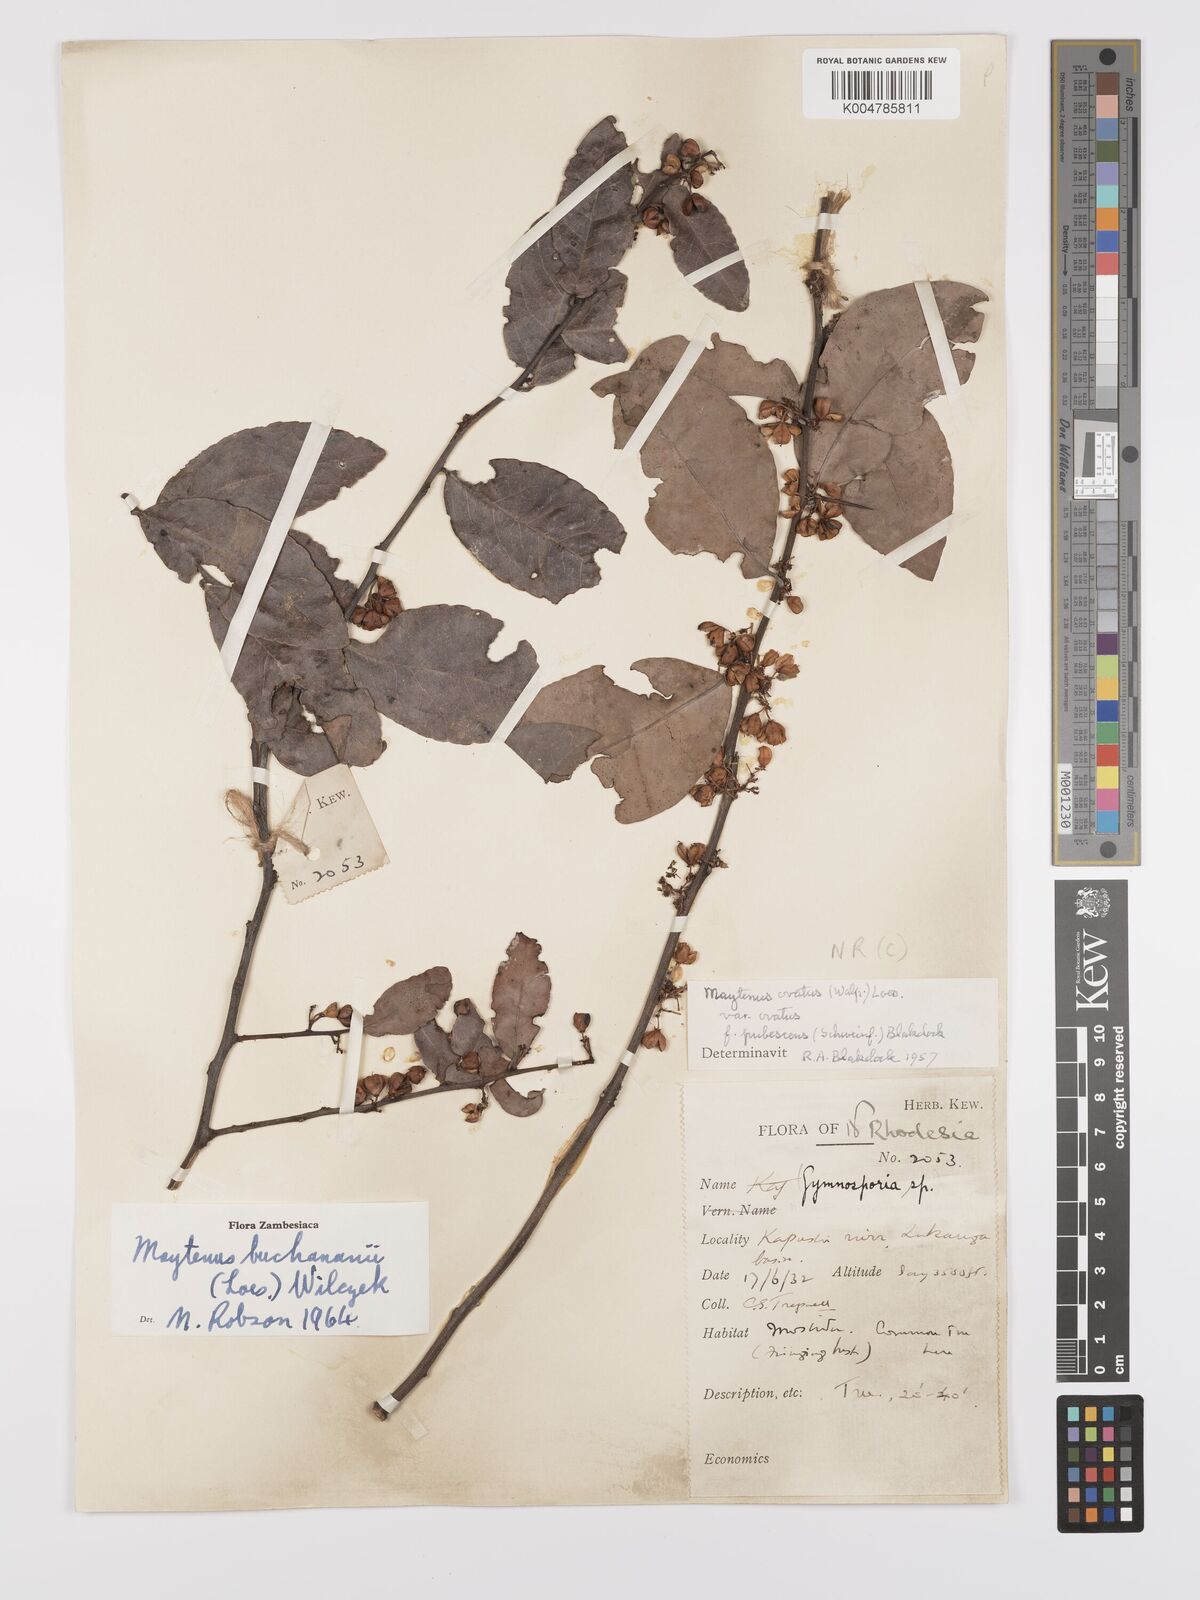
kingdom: Plantae
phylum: Tracheophyta
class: Magnoliopsida
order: Celastrales
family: Celastraceae
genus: Gymnosporia
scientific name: Gymnosporia buchananii
